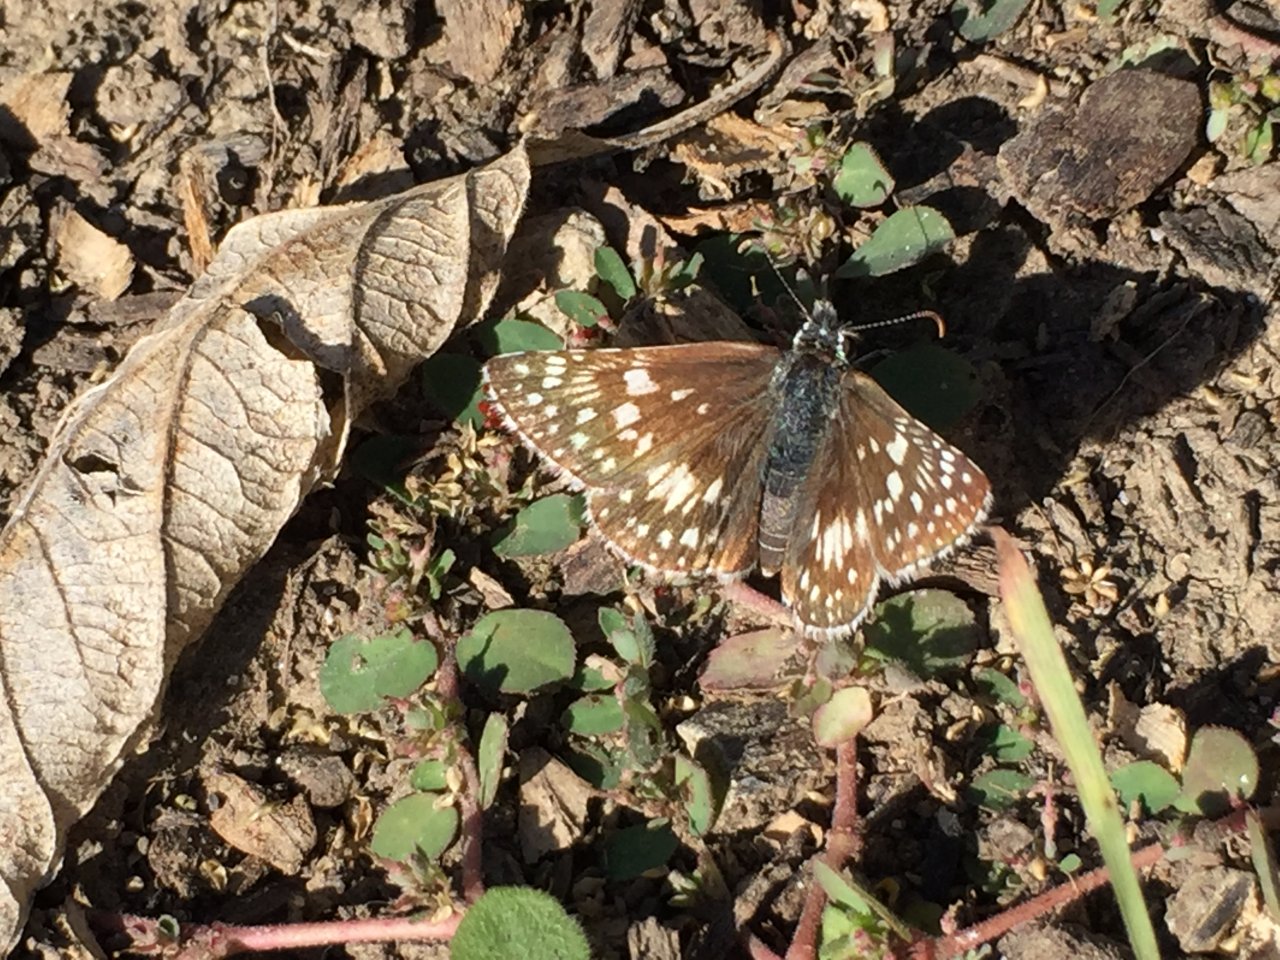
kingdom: Animalia
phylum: Arthropoda
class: Insecta
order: Lepidoptera
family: Hesperiidae
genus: Pyrgus
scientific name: Pyrgus communis
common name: Common Checkered-Skipper
